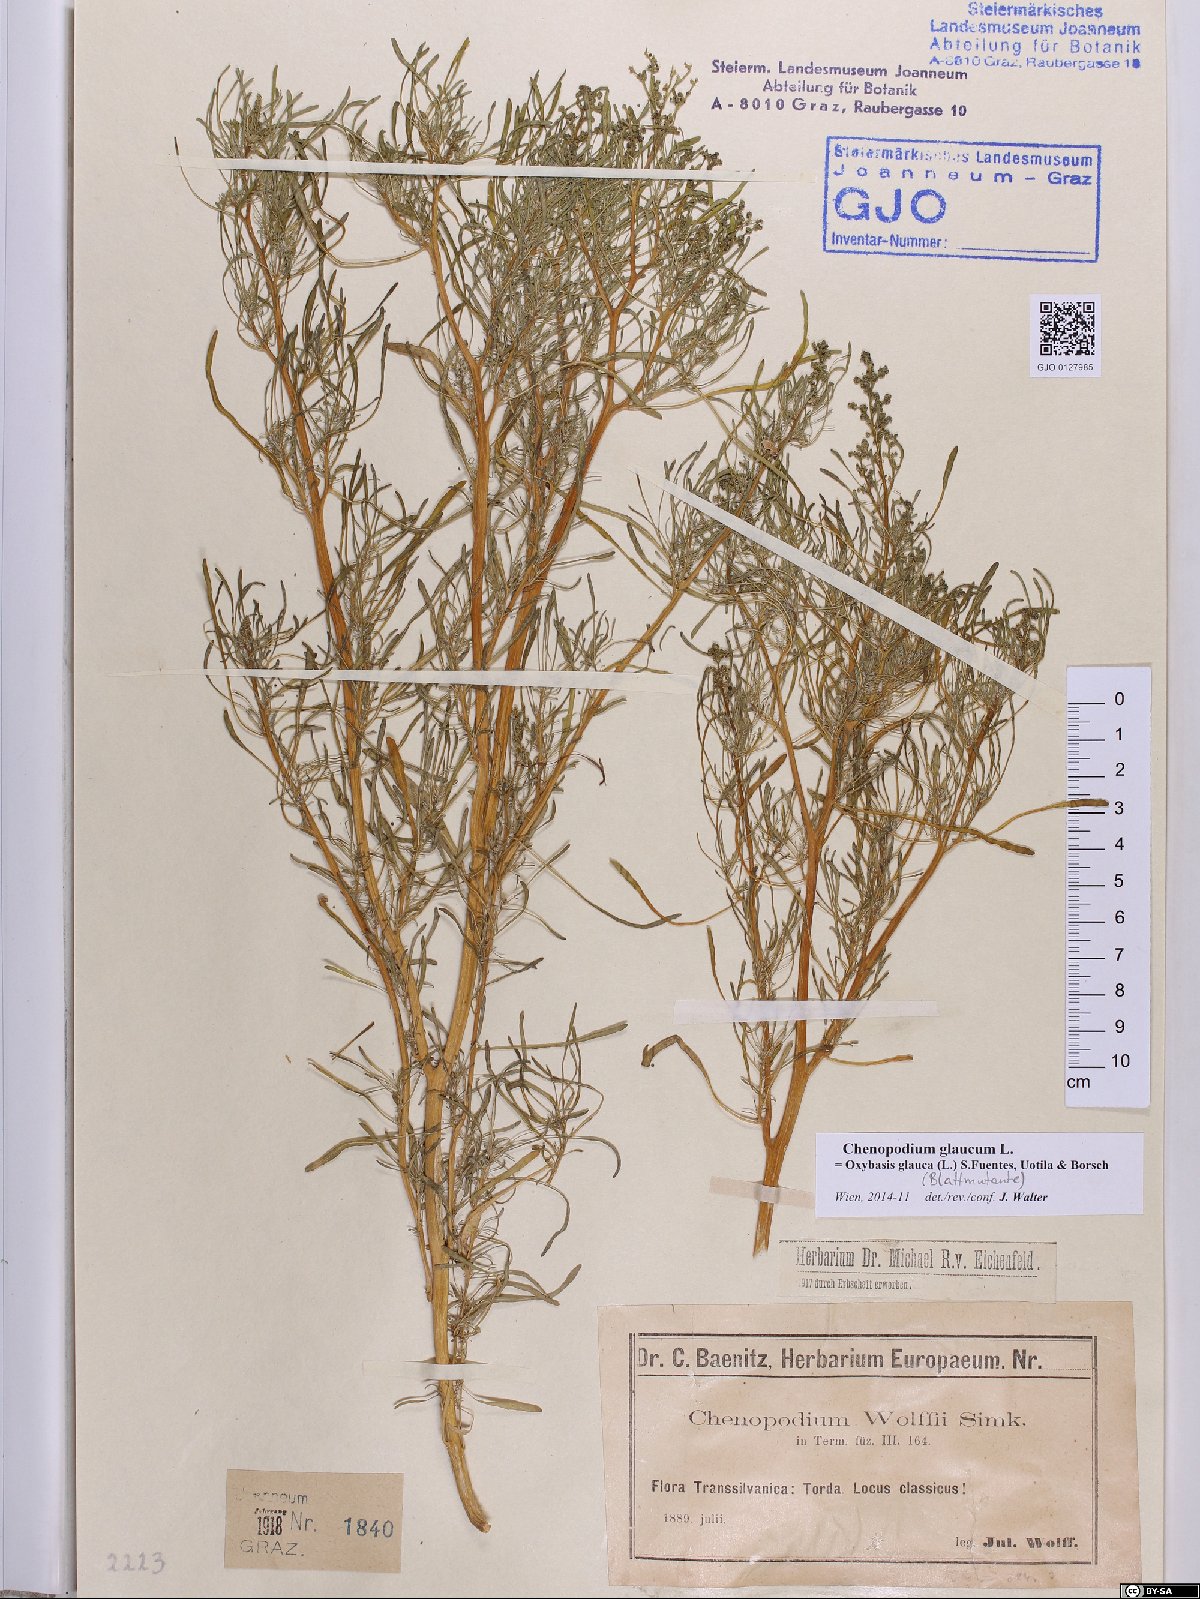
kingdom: Plantae
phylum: Tracheophyta
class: Magnoliopsida
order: Caryophyllales
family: Amaranthaceae
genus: Oxybasis
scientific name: Oxybasis glauca
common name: Glaucous goosefoot
